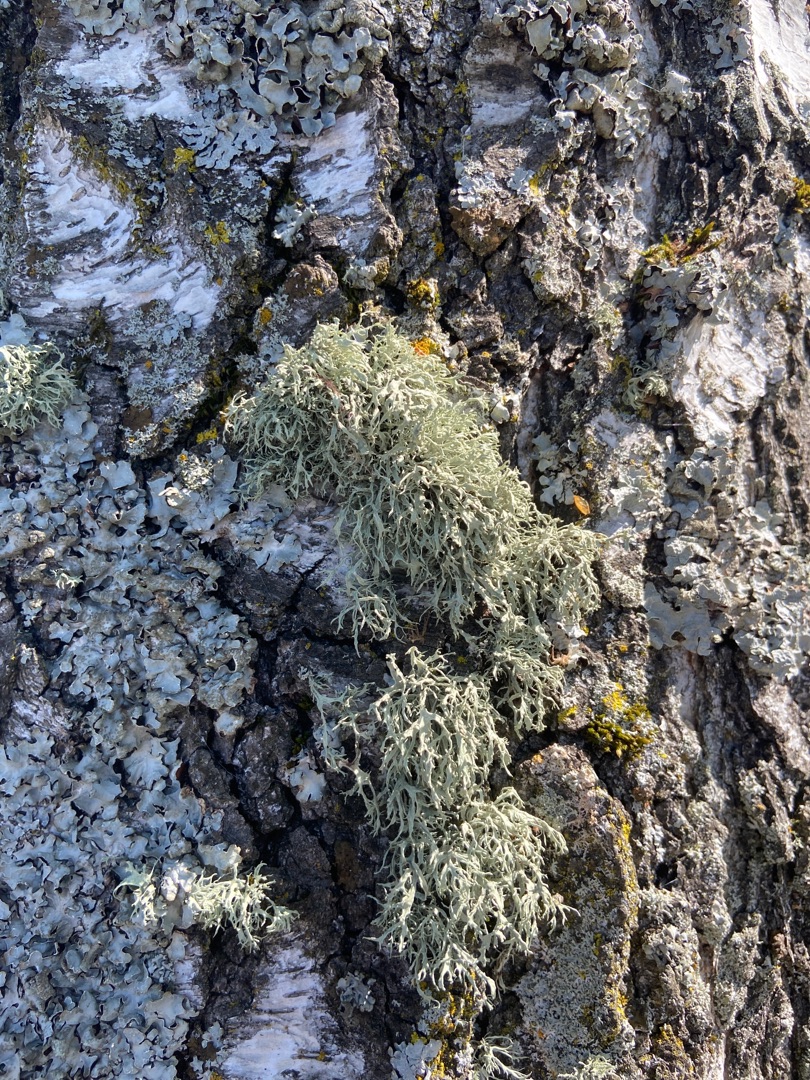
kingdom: Fungi
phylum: Ascomycota
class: Lecanoromycetes
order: Lecanorales
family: Ramalinaceae
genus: Ramalina
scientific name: Ramalina farinacea
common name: Melet grenlav
